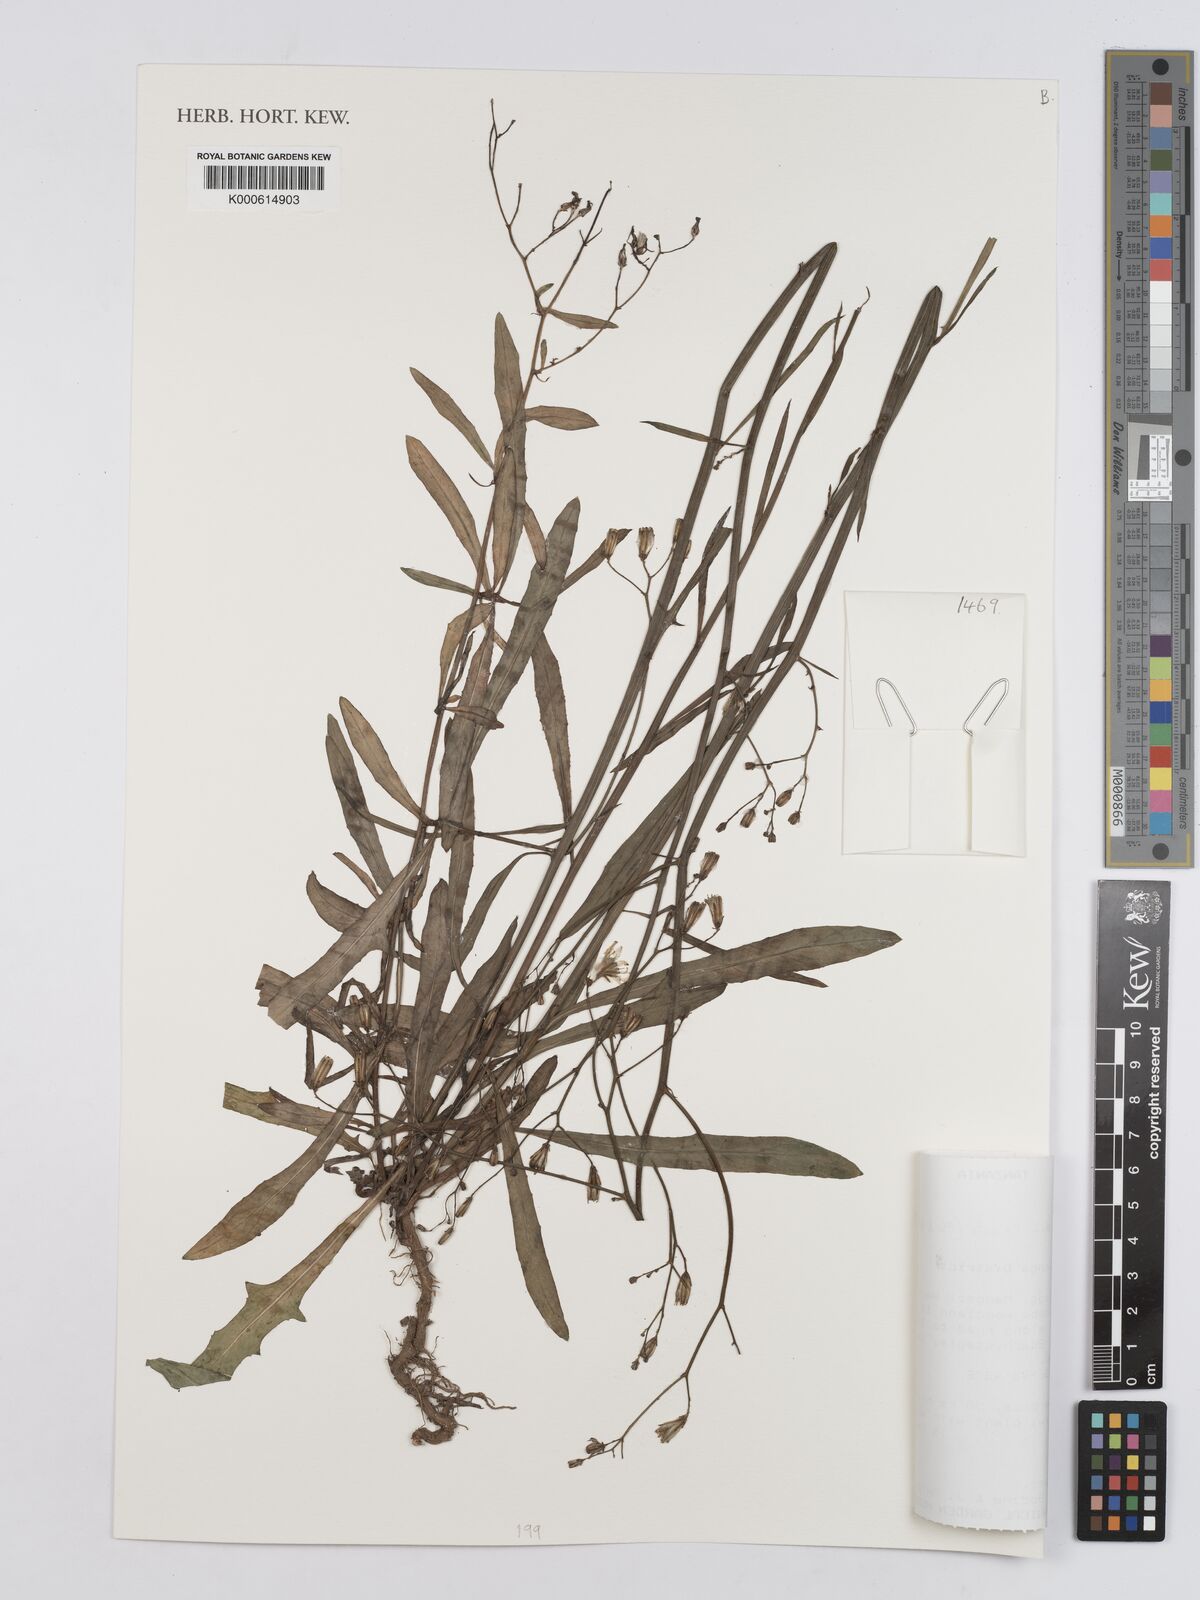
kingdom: Plantae
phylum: Tracheophyta
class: Magnoliopsida
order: Asterales
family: Asteraceae
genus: Launaea
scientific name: Launaea cornuta
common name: Bitter-lettuce
